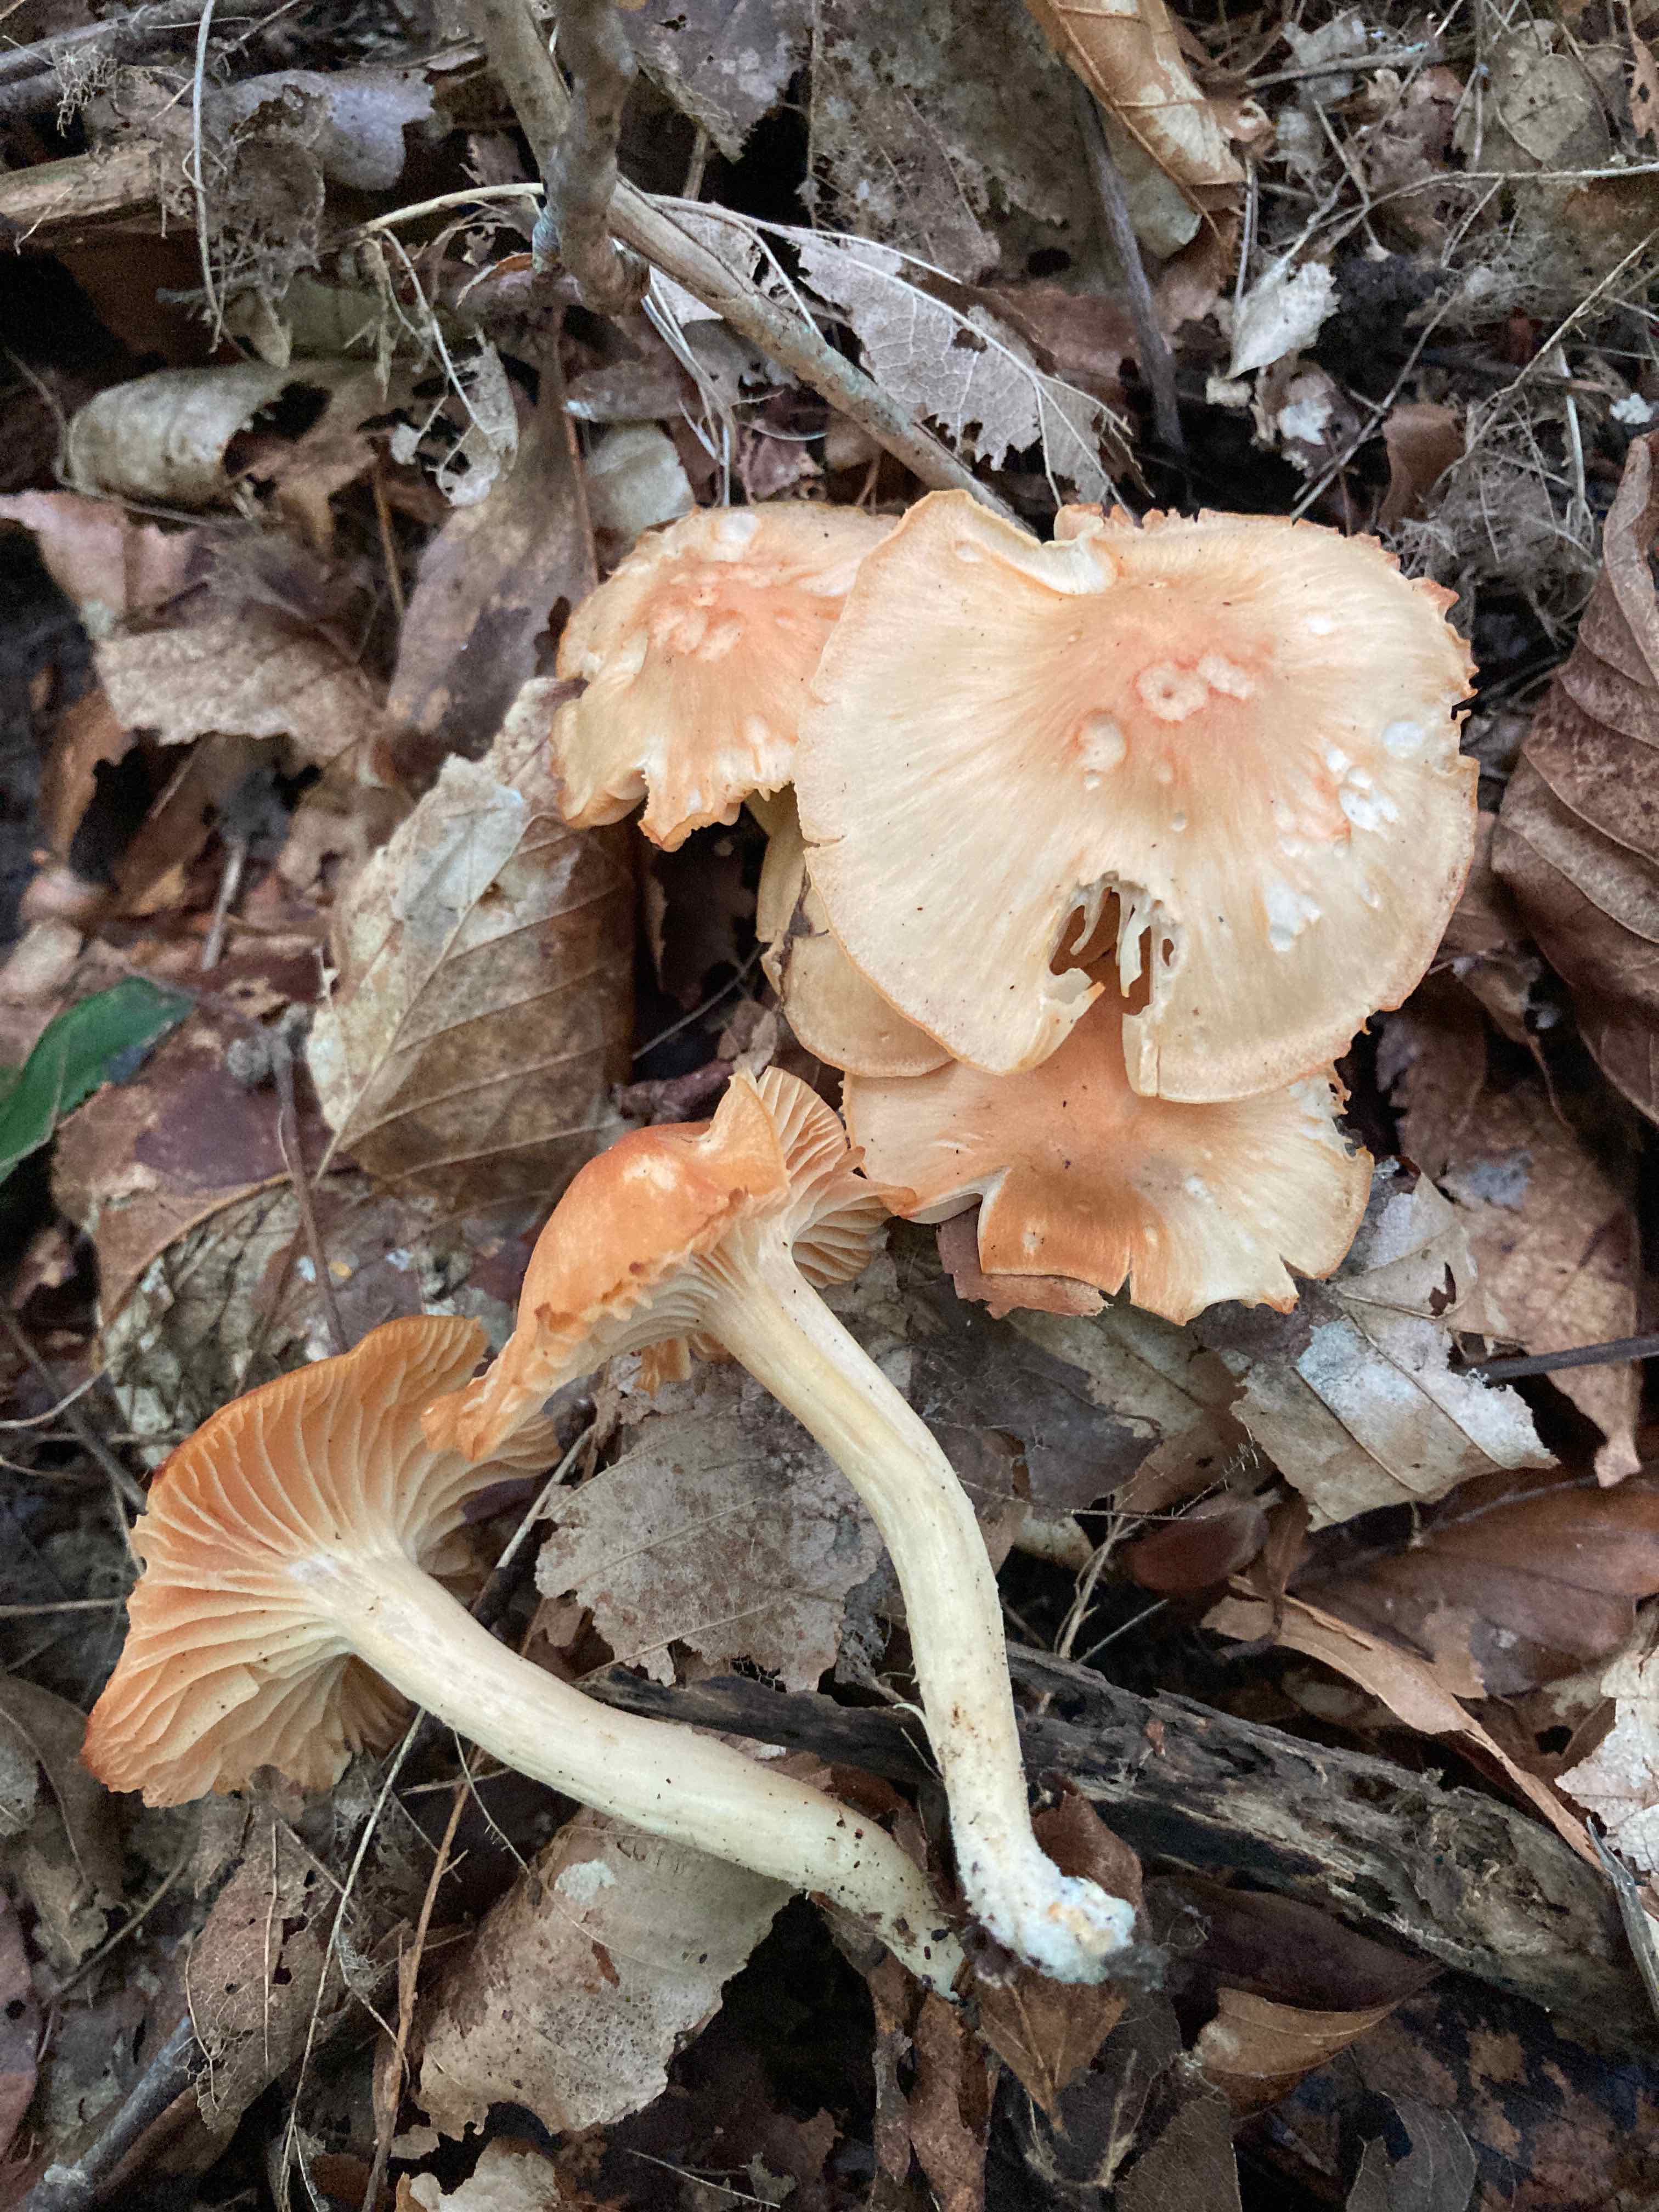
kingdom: Fungi
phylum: Basidiomycota
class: Agaricomycetes
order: Agaricales
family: Hygrophoraceae
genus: Cuphophyllus
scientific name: Cuphophyllus pratensis
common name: eng-vokshat
